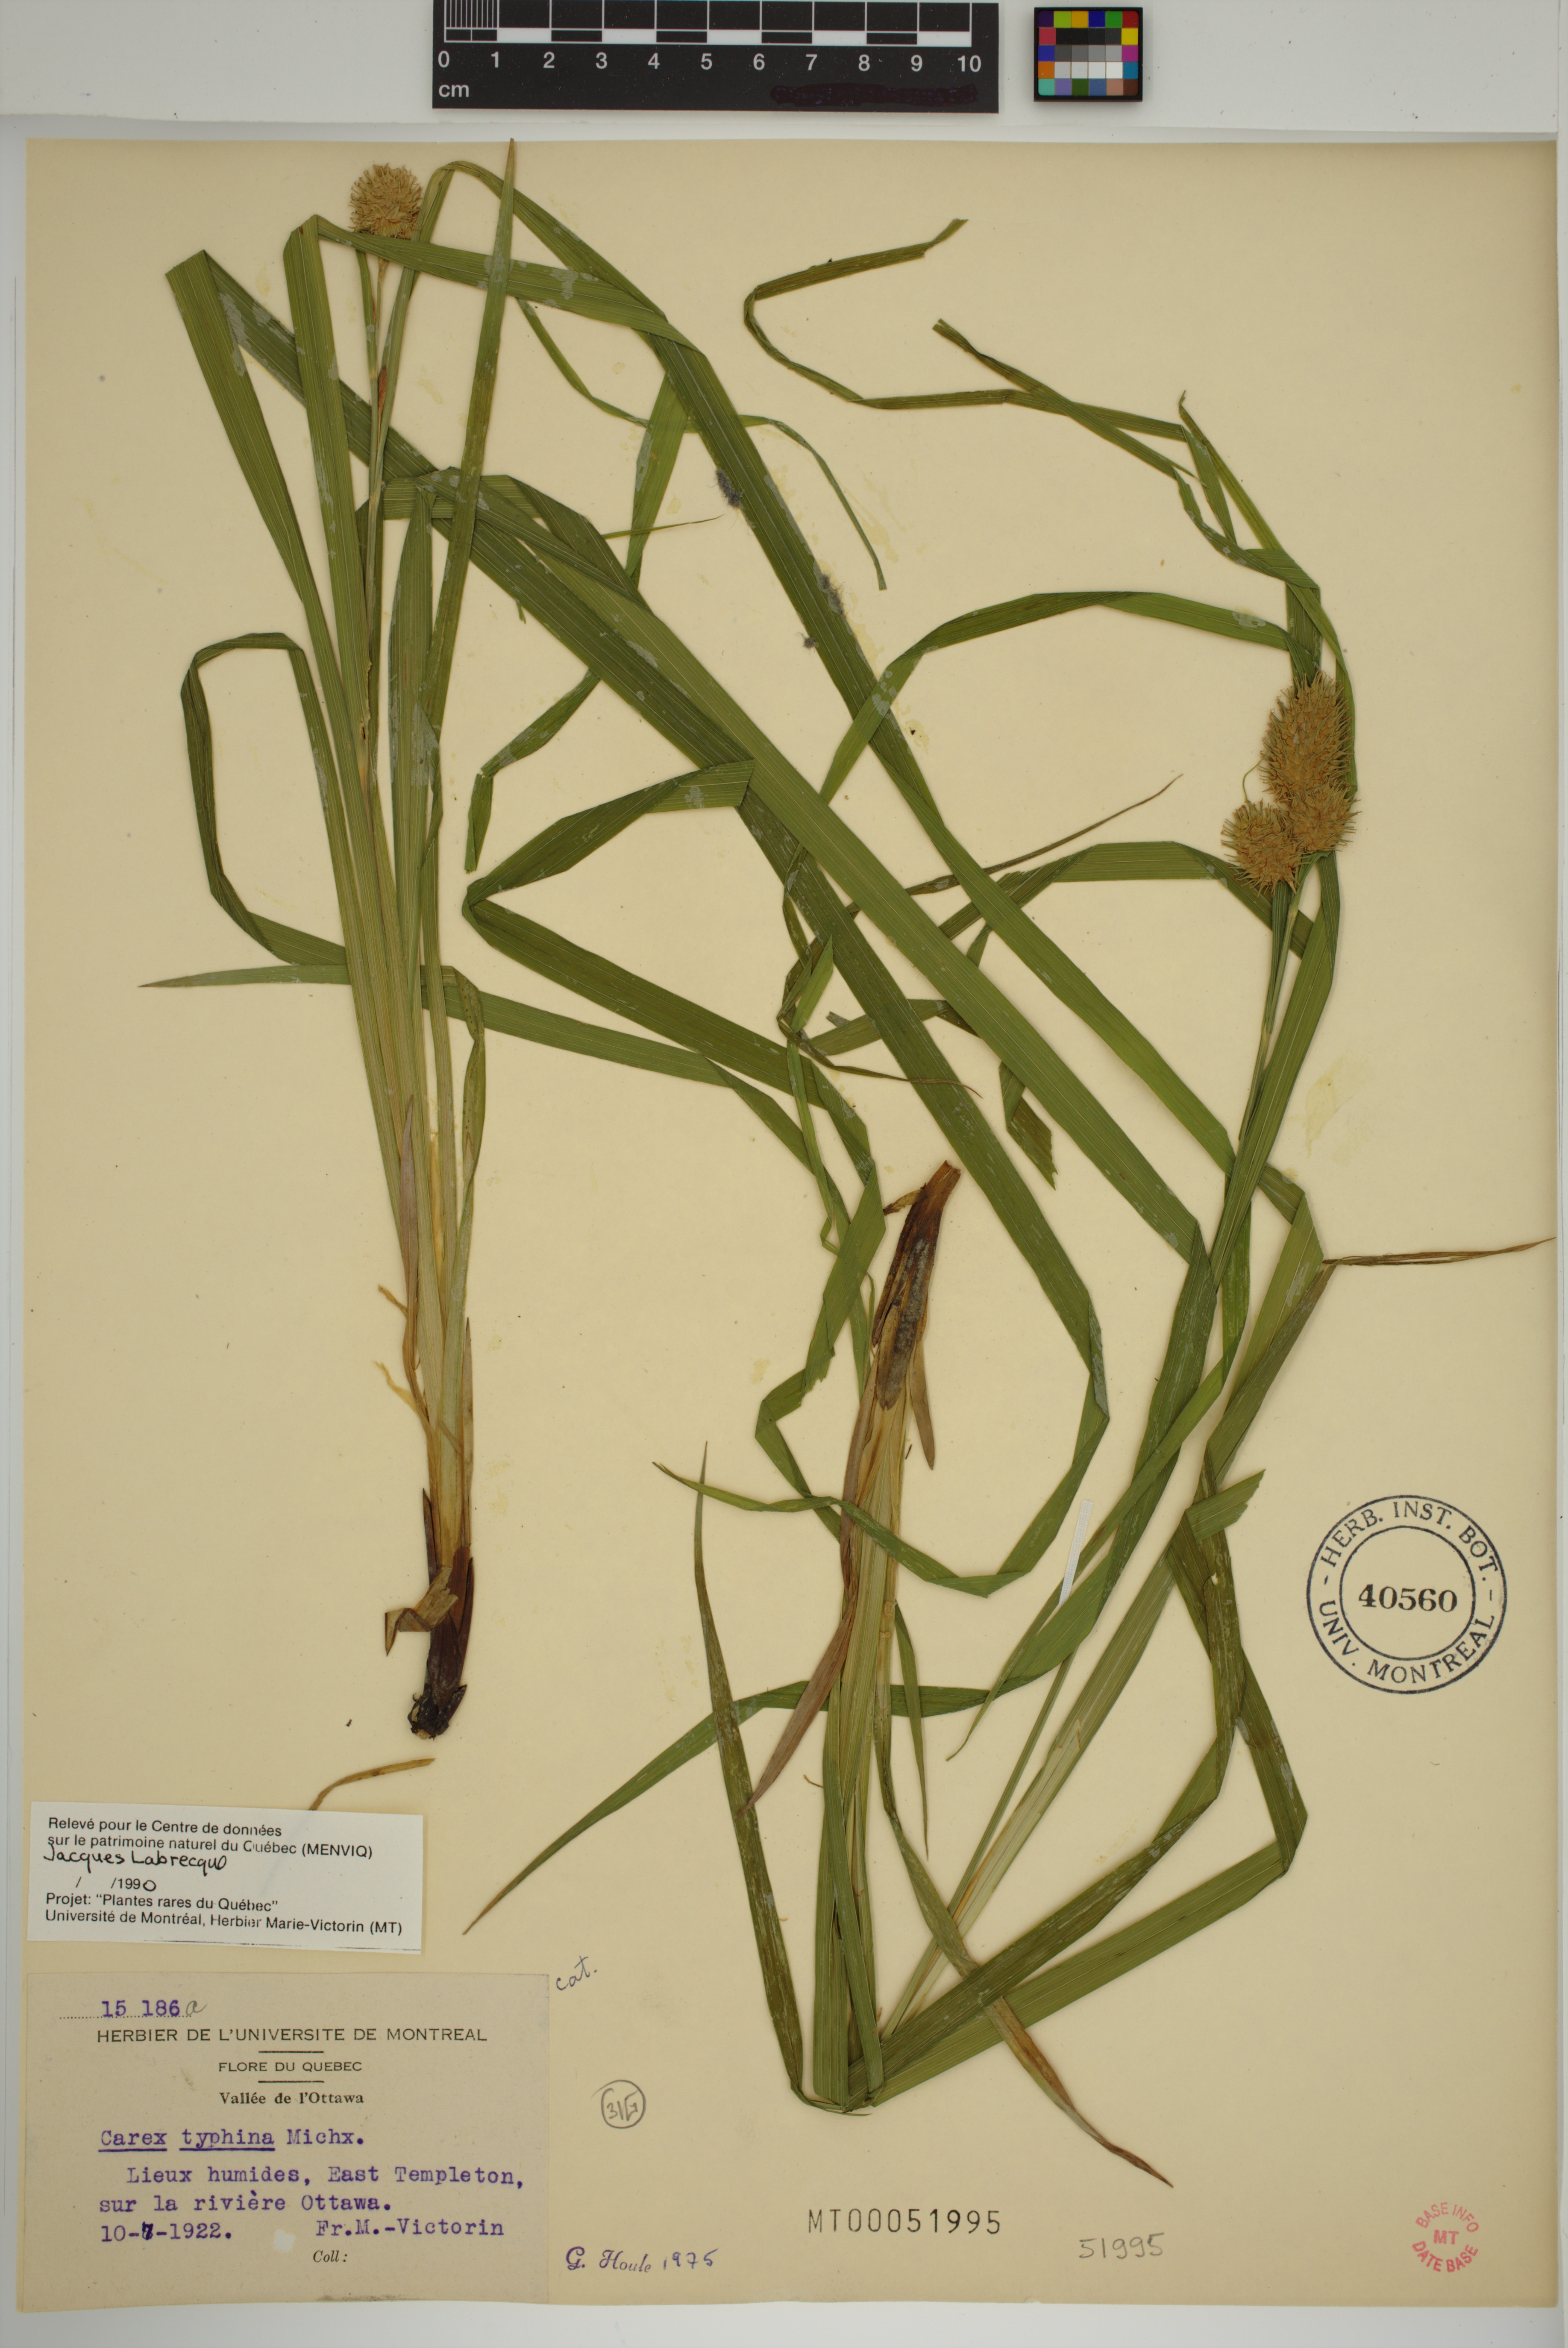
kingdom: Plantae
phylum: Tracheophyta
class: Liliopsida
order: Poales
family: Cyperaceae
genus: Carex
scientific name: Carex typhina
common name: Cattail sedge
